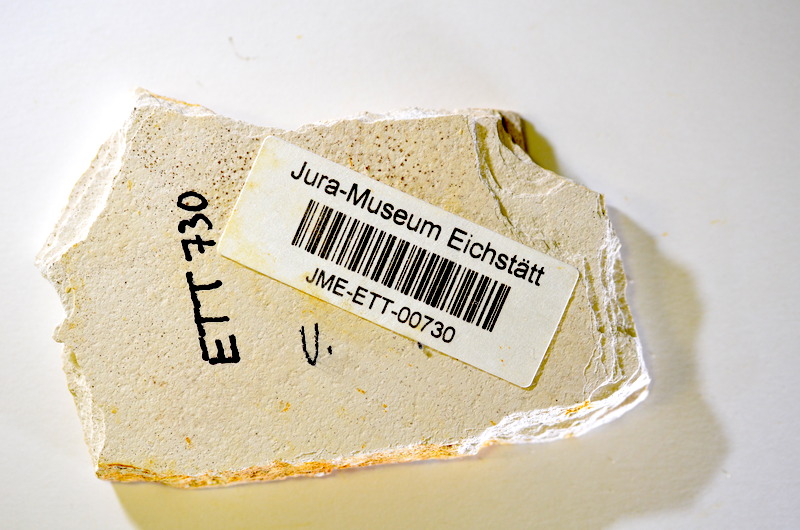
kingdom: Animalia
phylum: Chordata
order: Salmoniformes
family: Orthogonikleithridae
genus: Orthogonikleithrus
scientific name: Orthogonikleithrus hoelli
